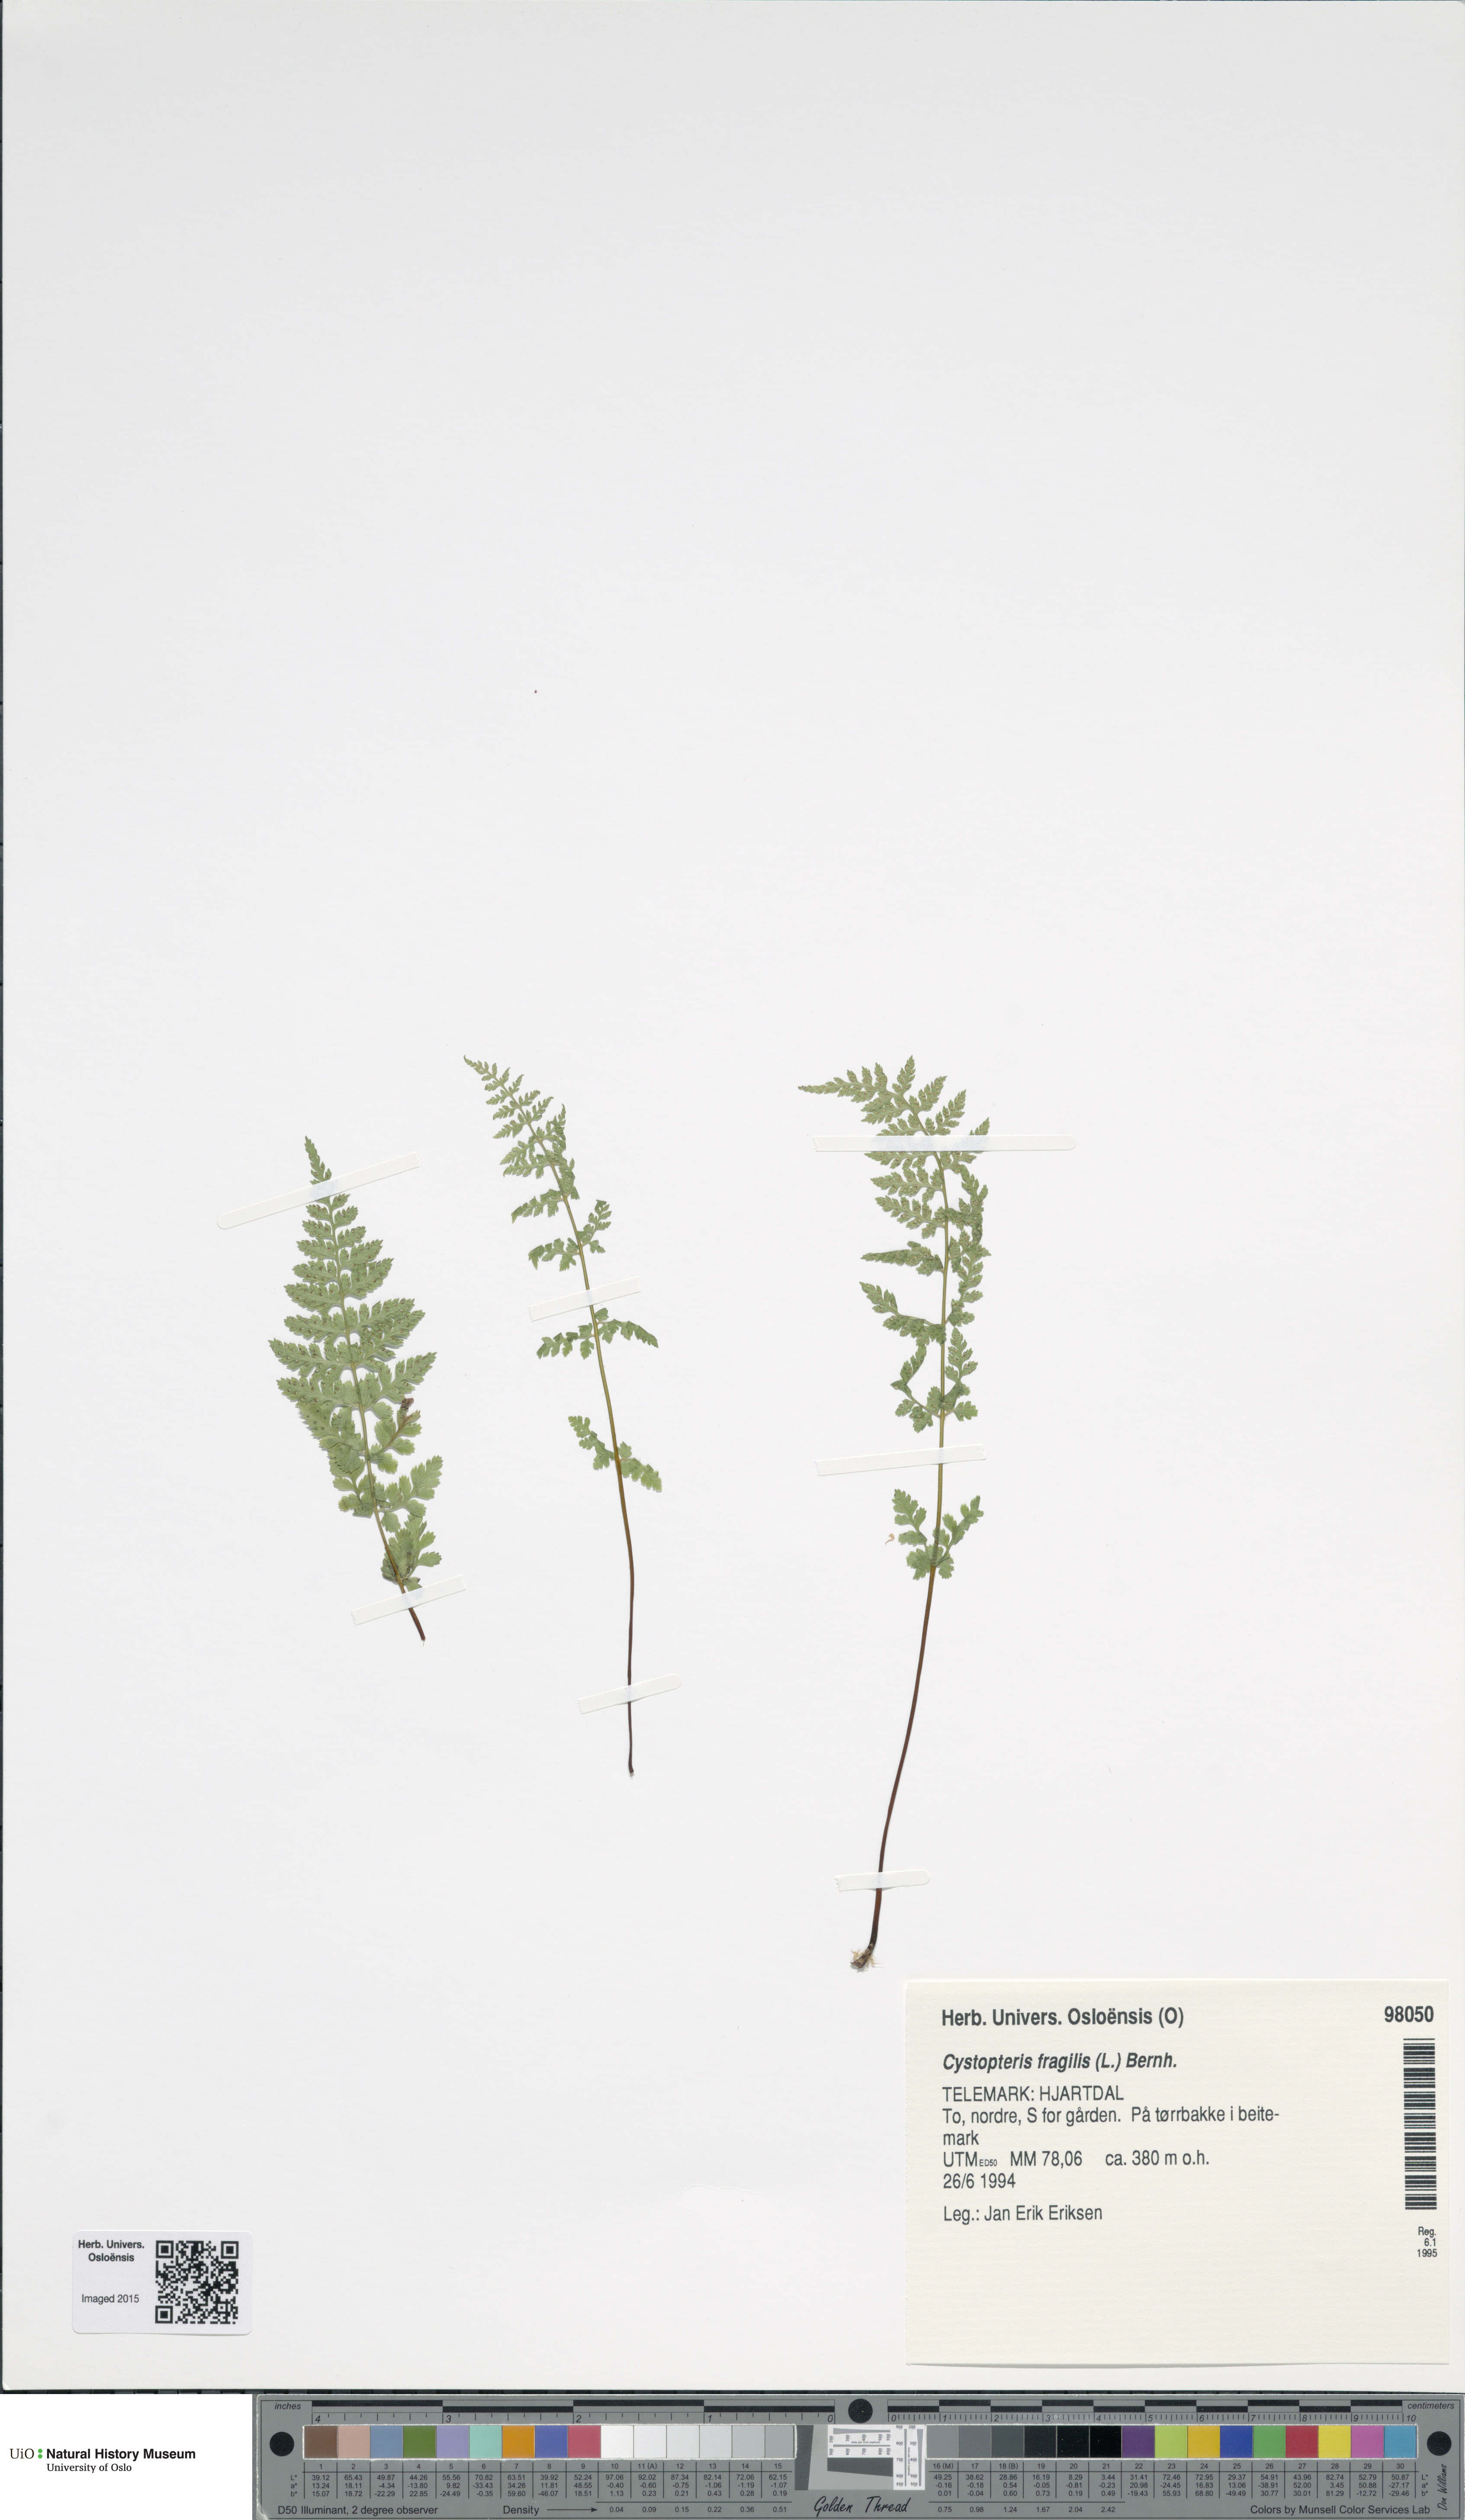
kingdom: Plantae
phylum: Tracheophyta
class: Polypodiopsida
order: Polypodiales
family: Cystopteridaceae
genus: Cystopteris
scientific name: Cystopteris fragilis
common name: Brittle bladder fern
